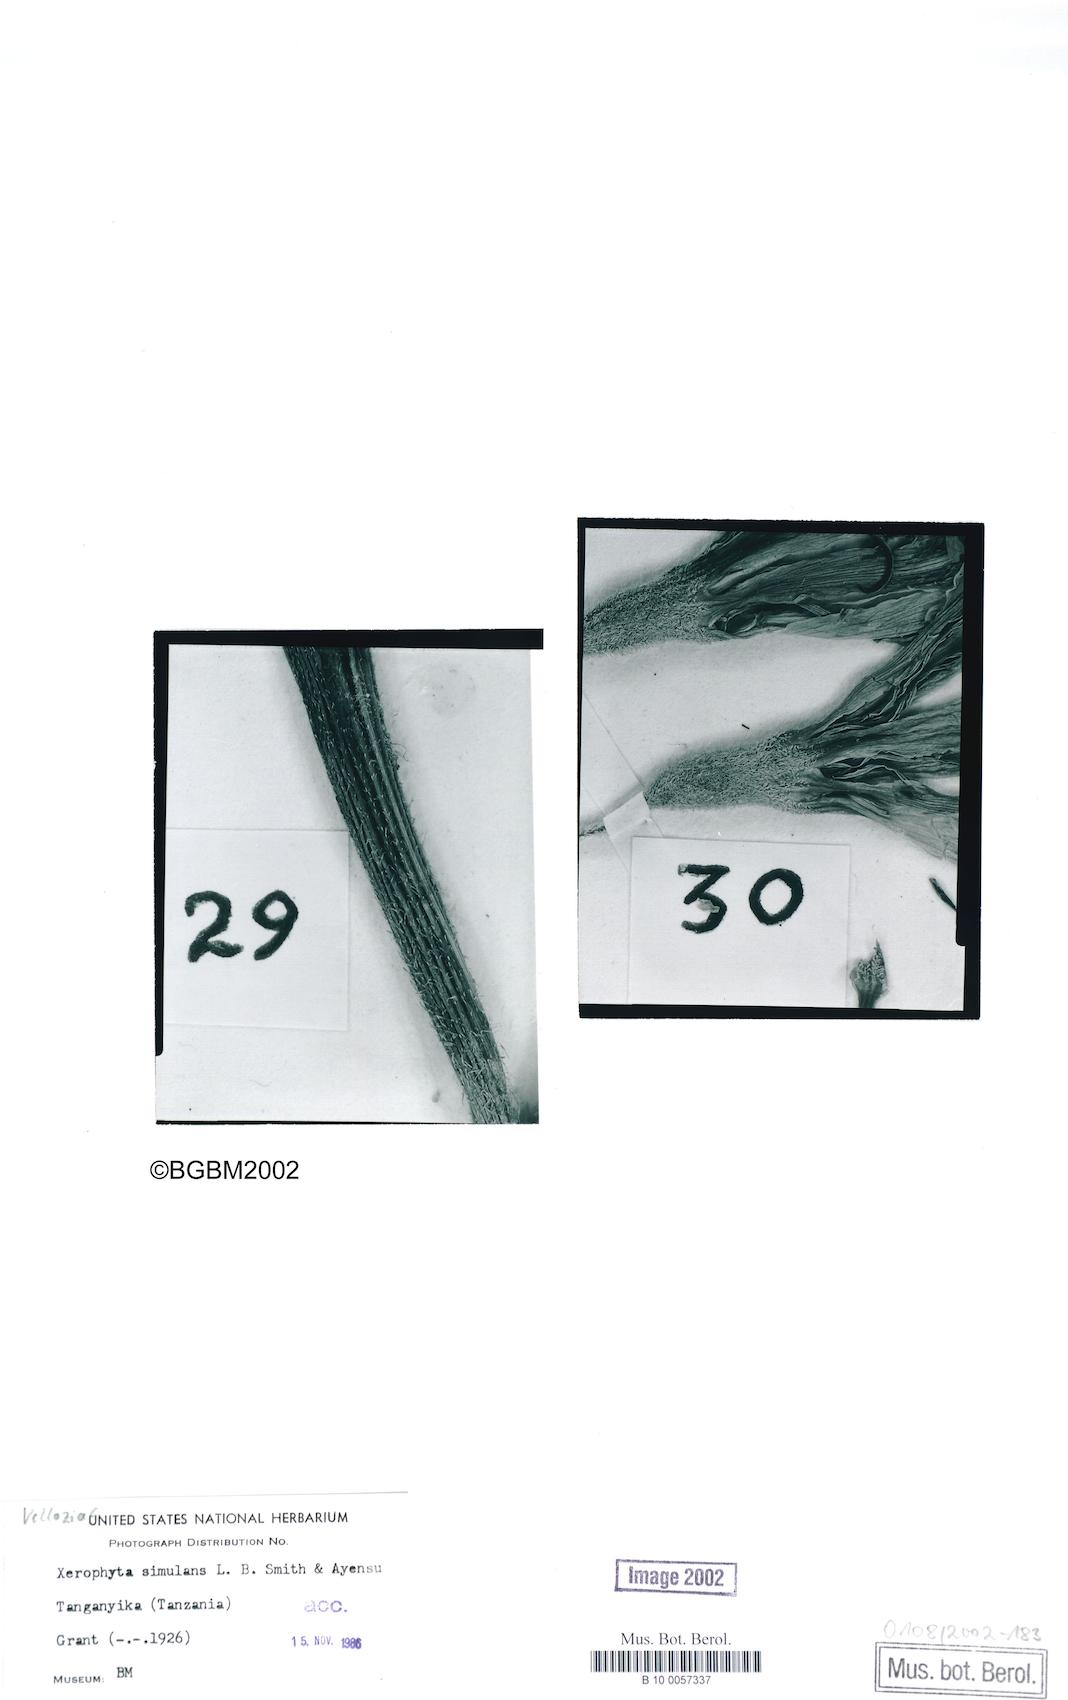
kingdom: Plantae
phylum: Tracheophyta
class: Liliopsida
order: Pandanales
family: Velloziaceae
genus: Xerophyta
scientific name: Xerophyta simulans
